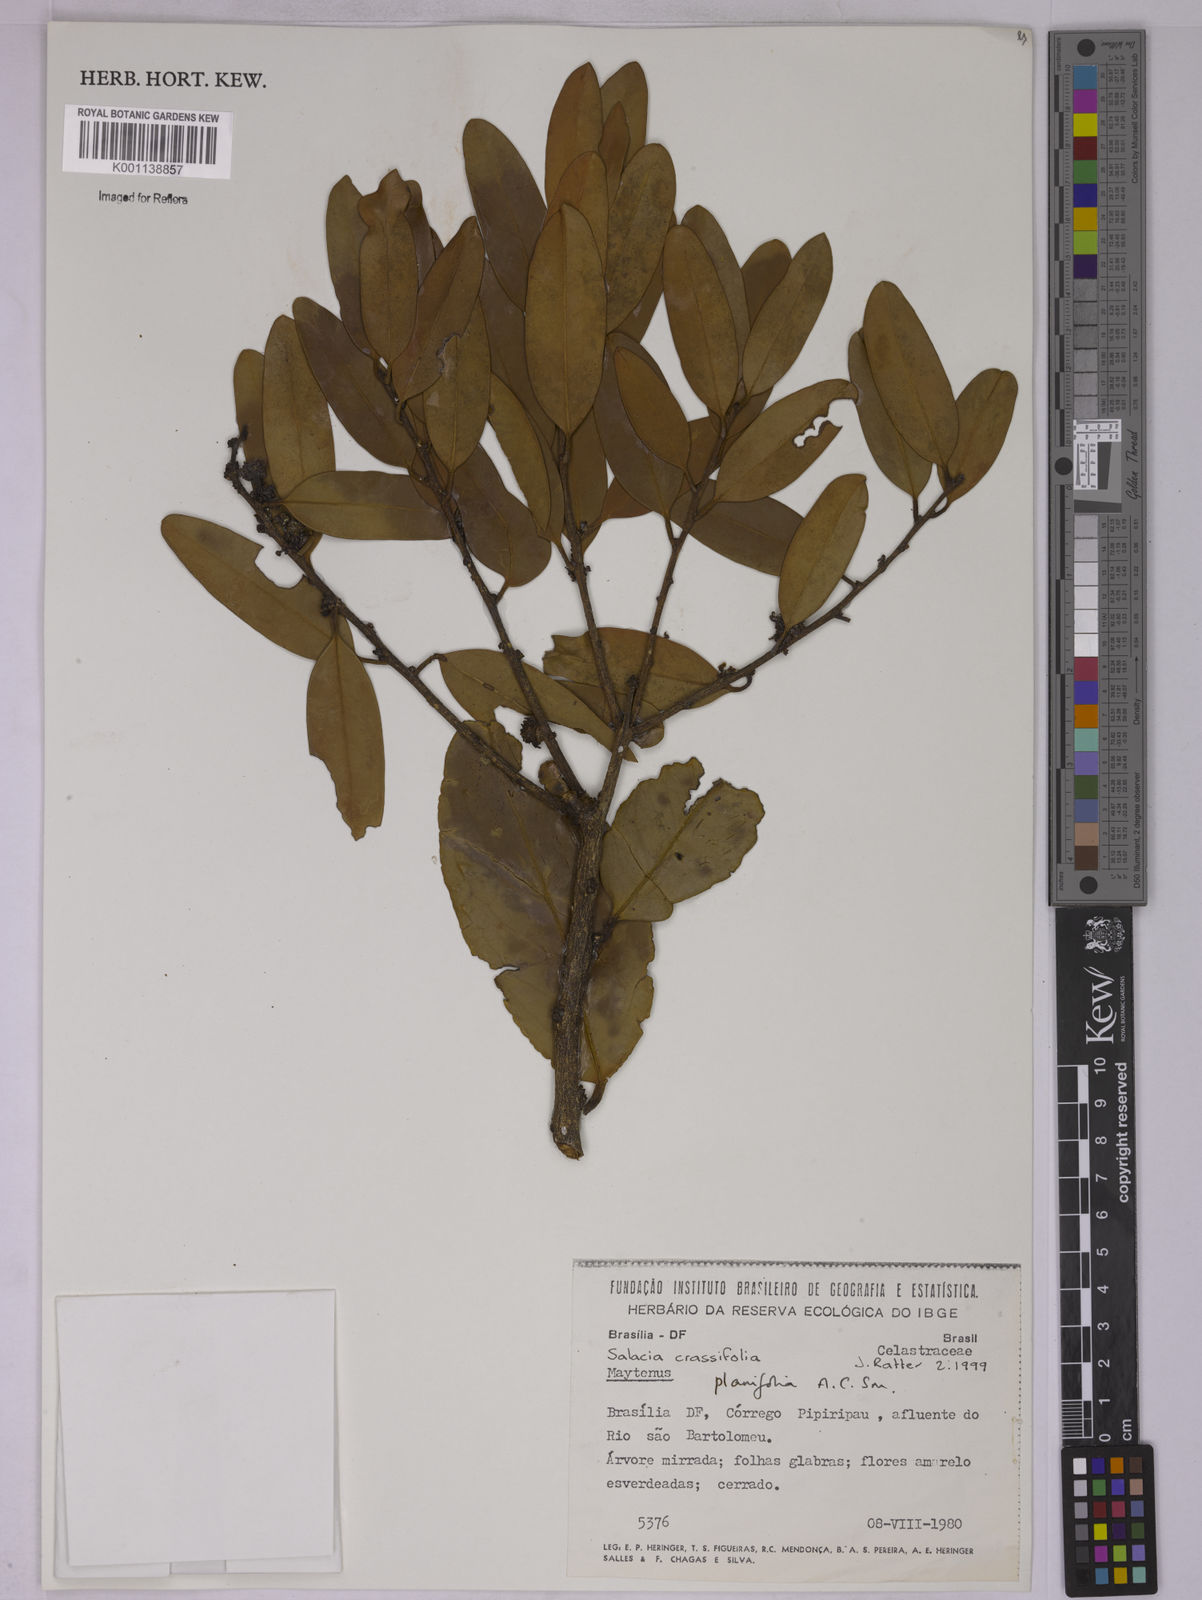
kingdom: Plantae
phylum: Tracheophyta
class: Magnoliopsida
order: Celastrales
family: Celastraceae
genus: Salacia
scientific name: Salacia crassifolia
